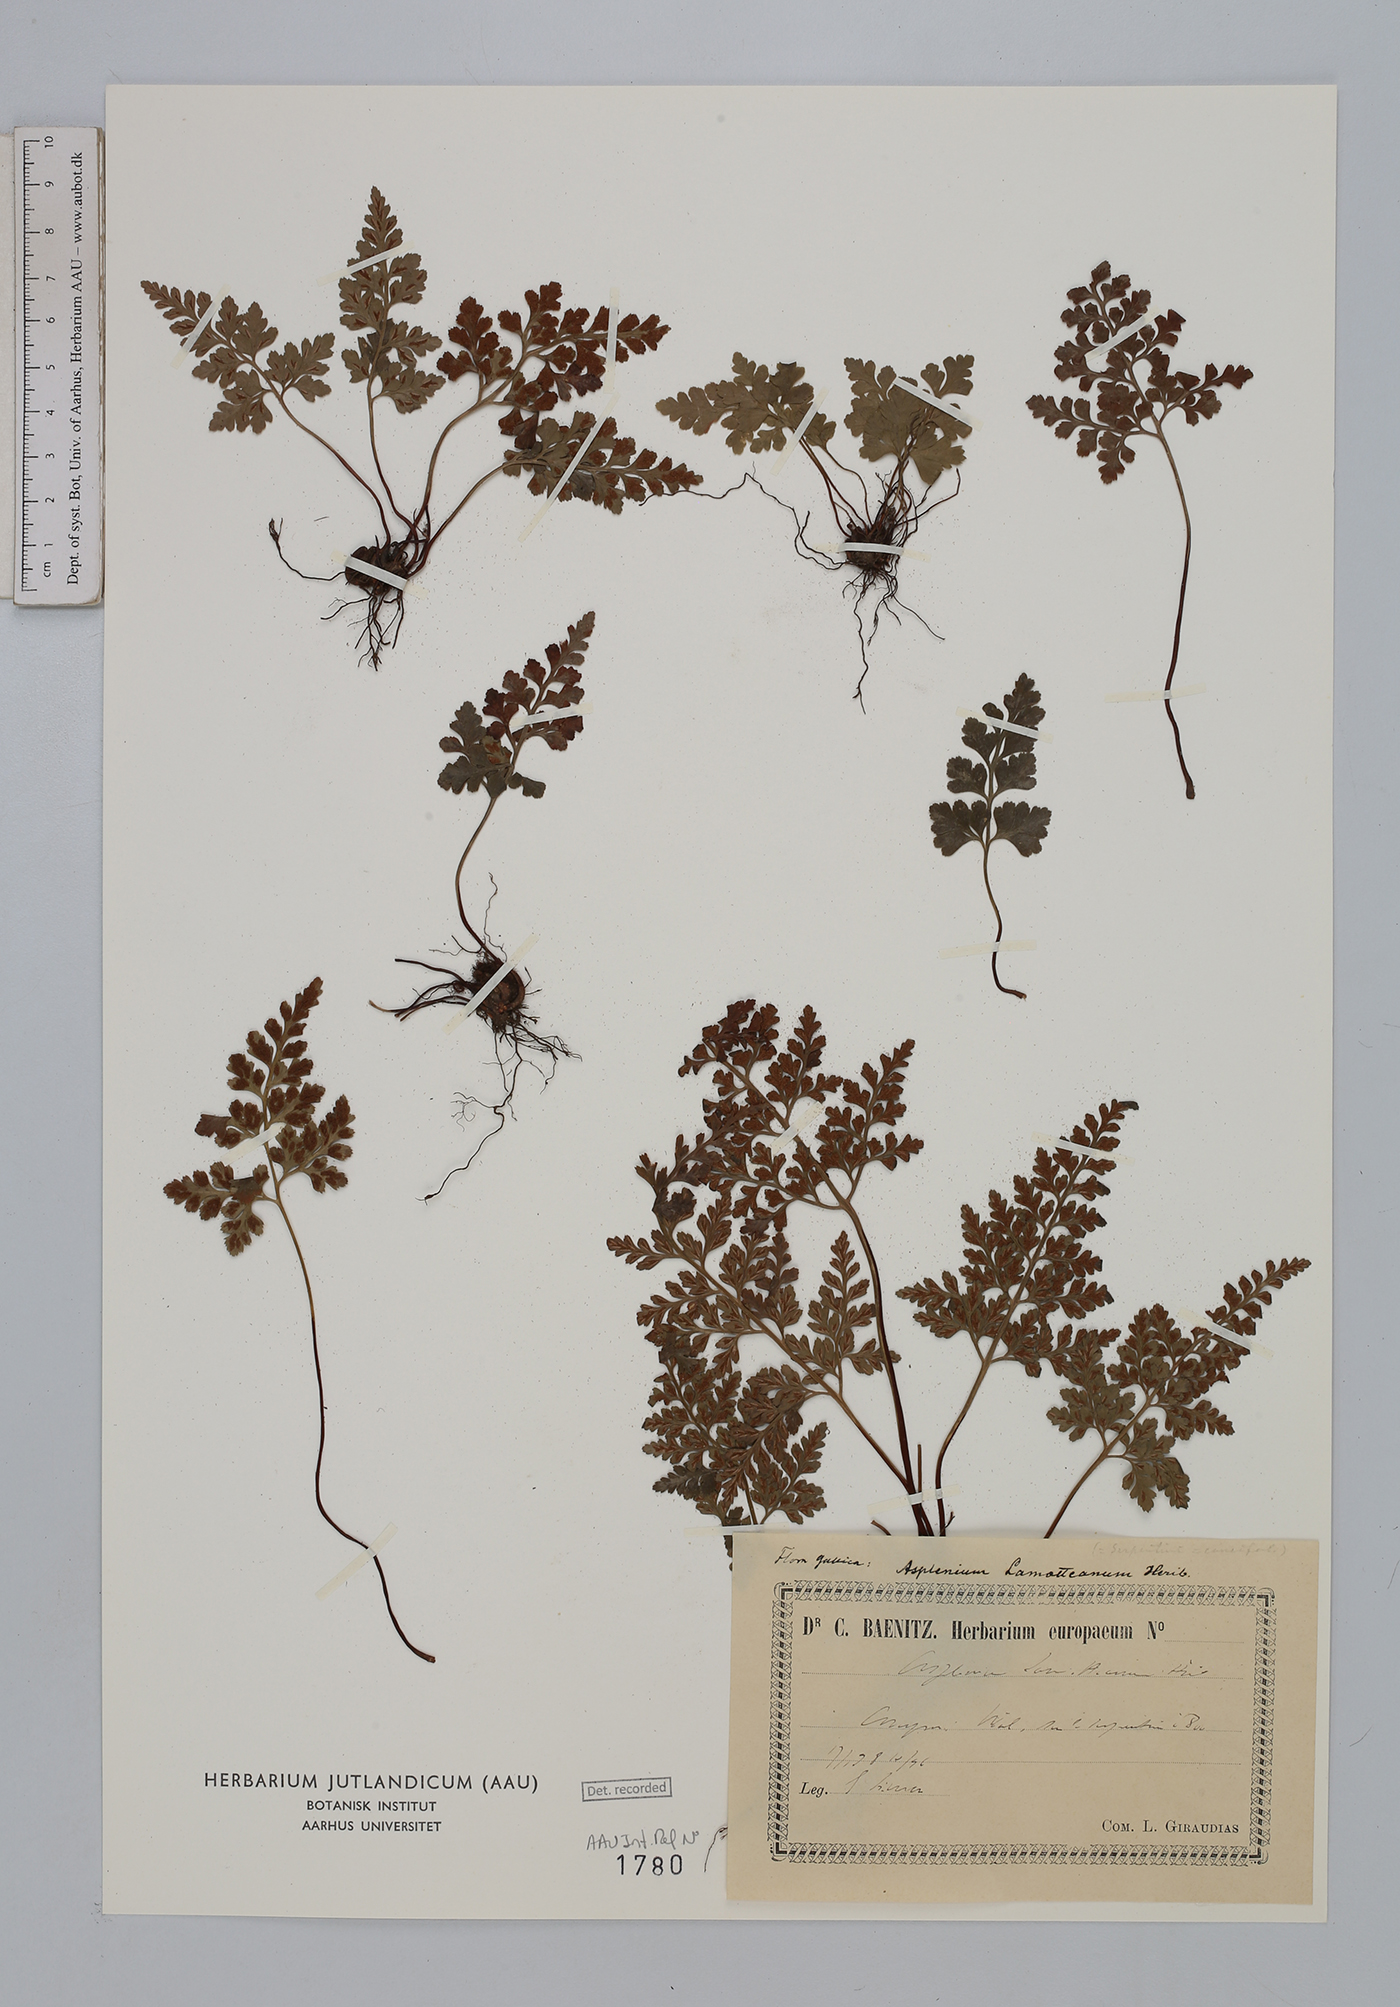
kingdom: Plantae
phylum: Tracheophyta
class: Polypodiopsida
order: Polypodiales
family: Aspleniaceae
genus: Asplenium
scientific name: Asplenium cuneifolium
